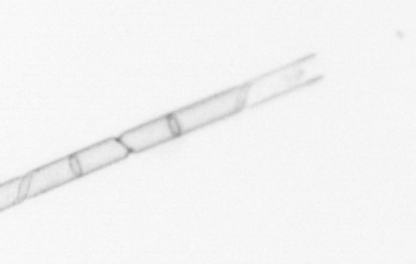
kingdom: Chromista
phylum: Ochrophyta
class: Bacillariophyceae
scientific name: Bacillariophyceae
